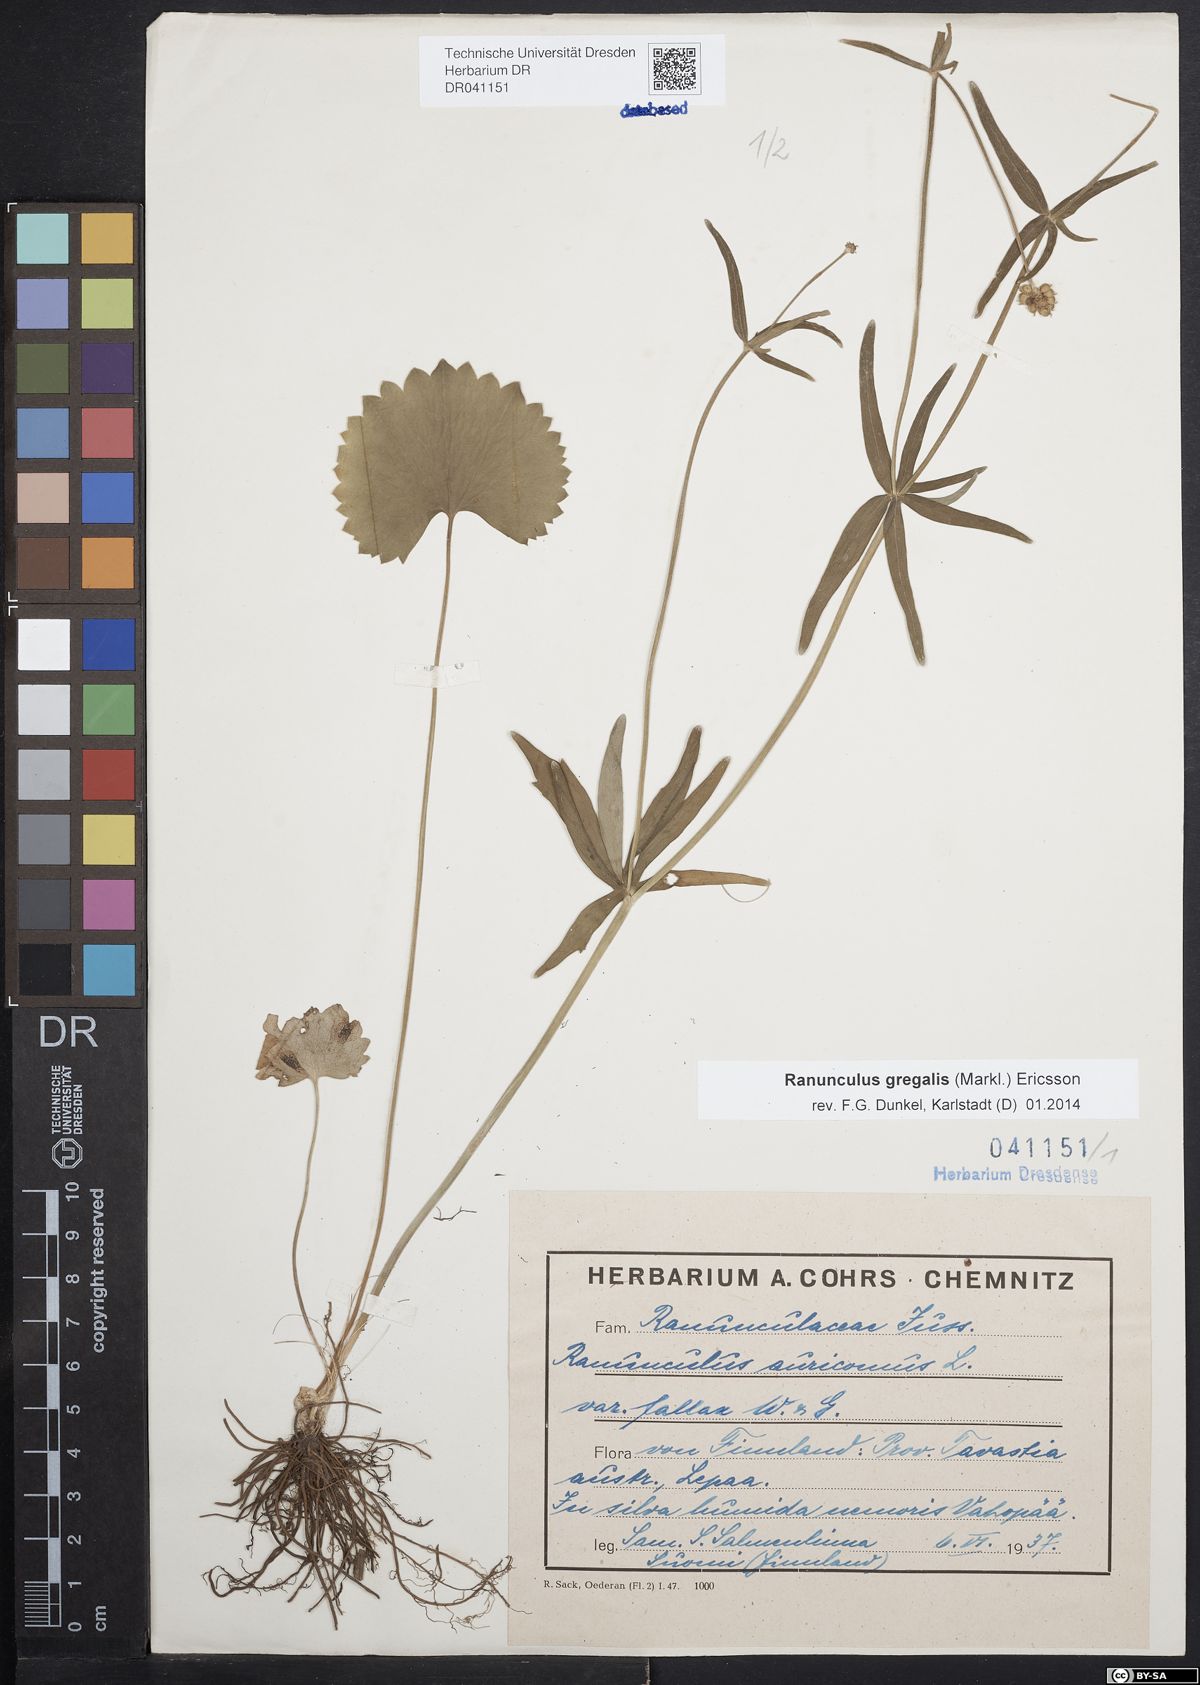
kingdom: Plantae
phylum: Tracheophyta
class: Magnoliopsida
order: Ranunculales
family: Ranunculaceae
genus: Ranunculus
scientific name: Ranunculus gregalis
